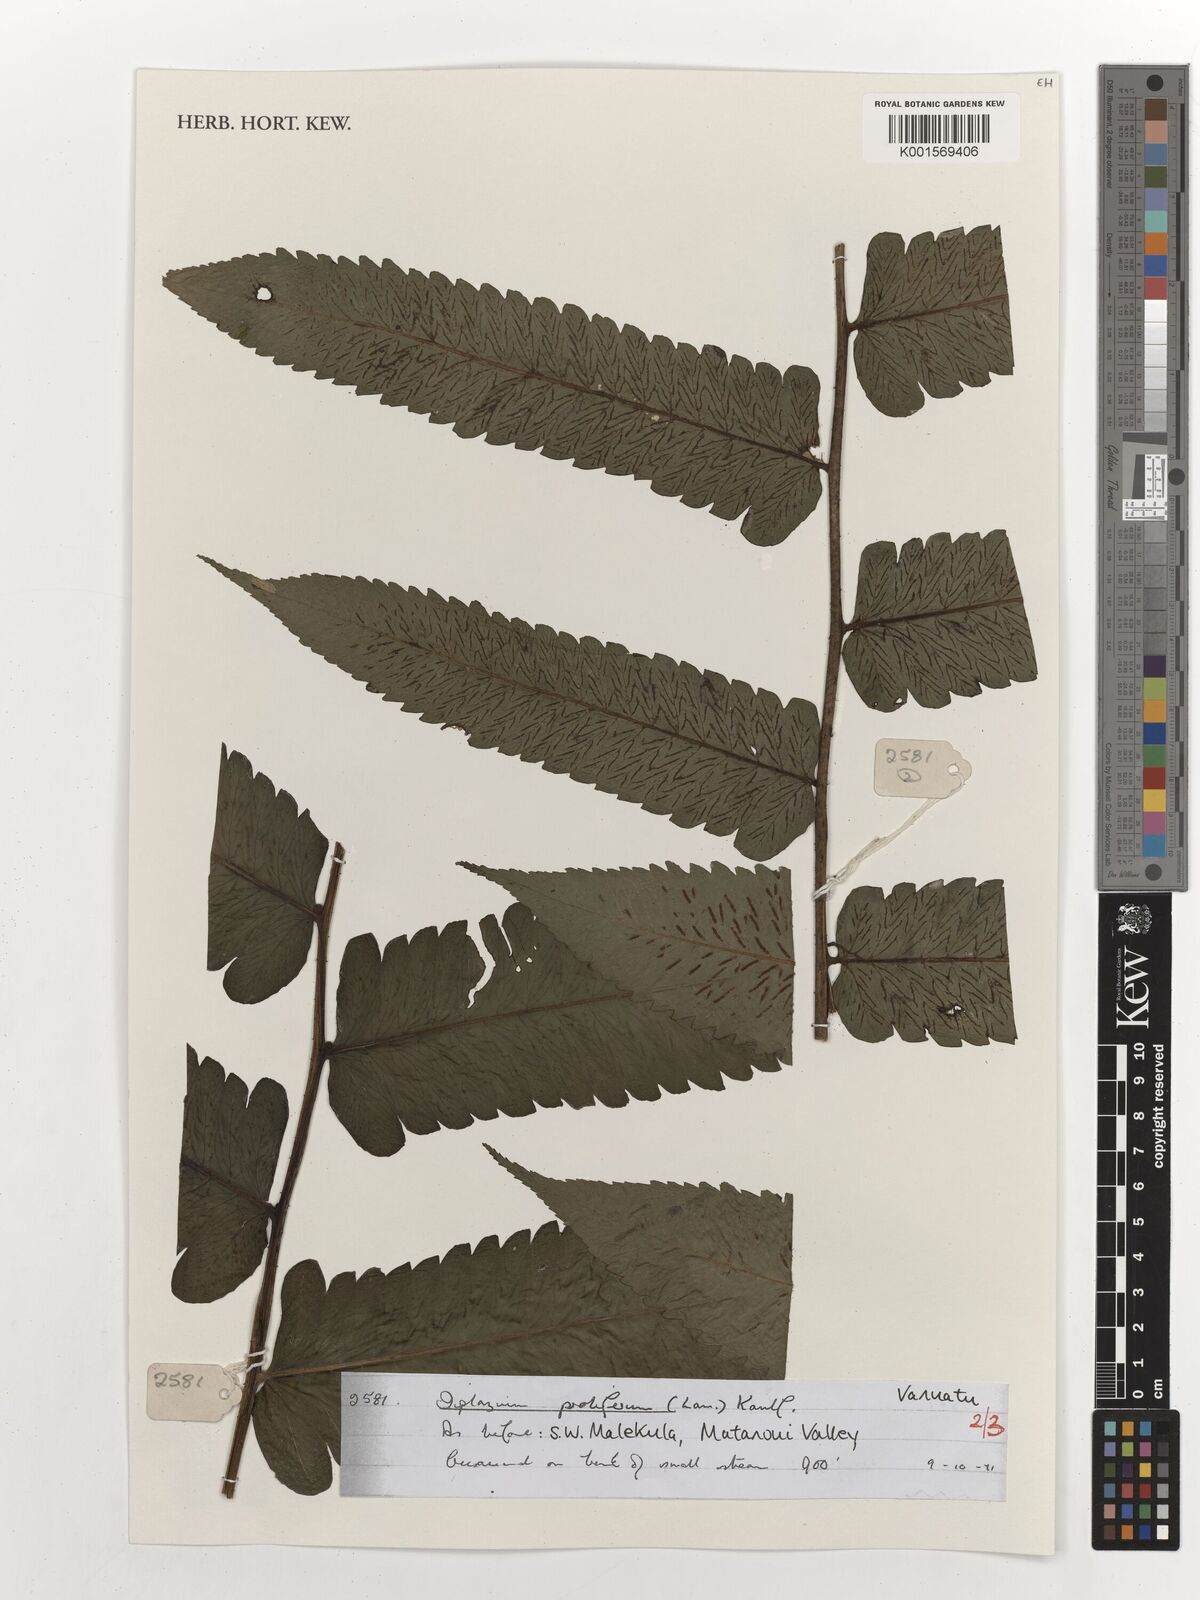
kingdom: Plantae
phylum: Tracheophyta
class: Polypodiopsida
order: Polypodiales
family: Athyriaceae
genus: Diplazium
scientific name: Diplazium proliferum
